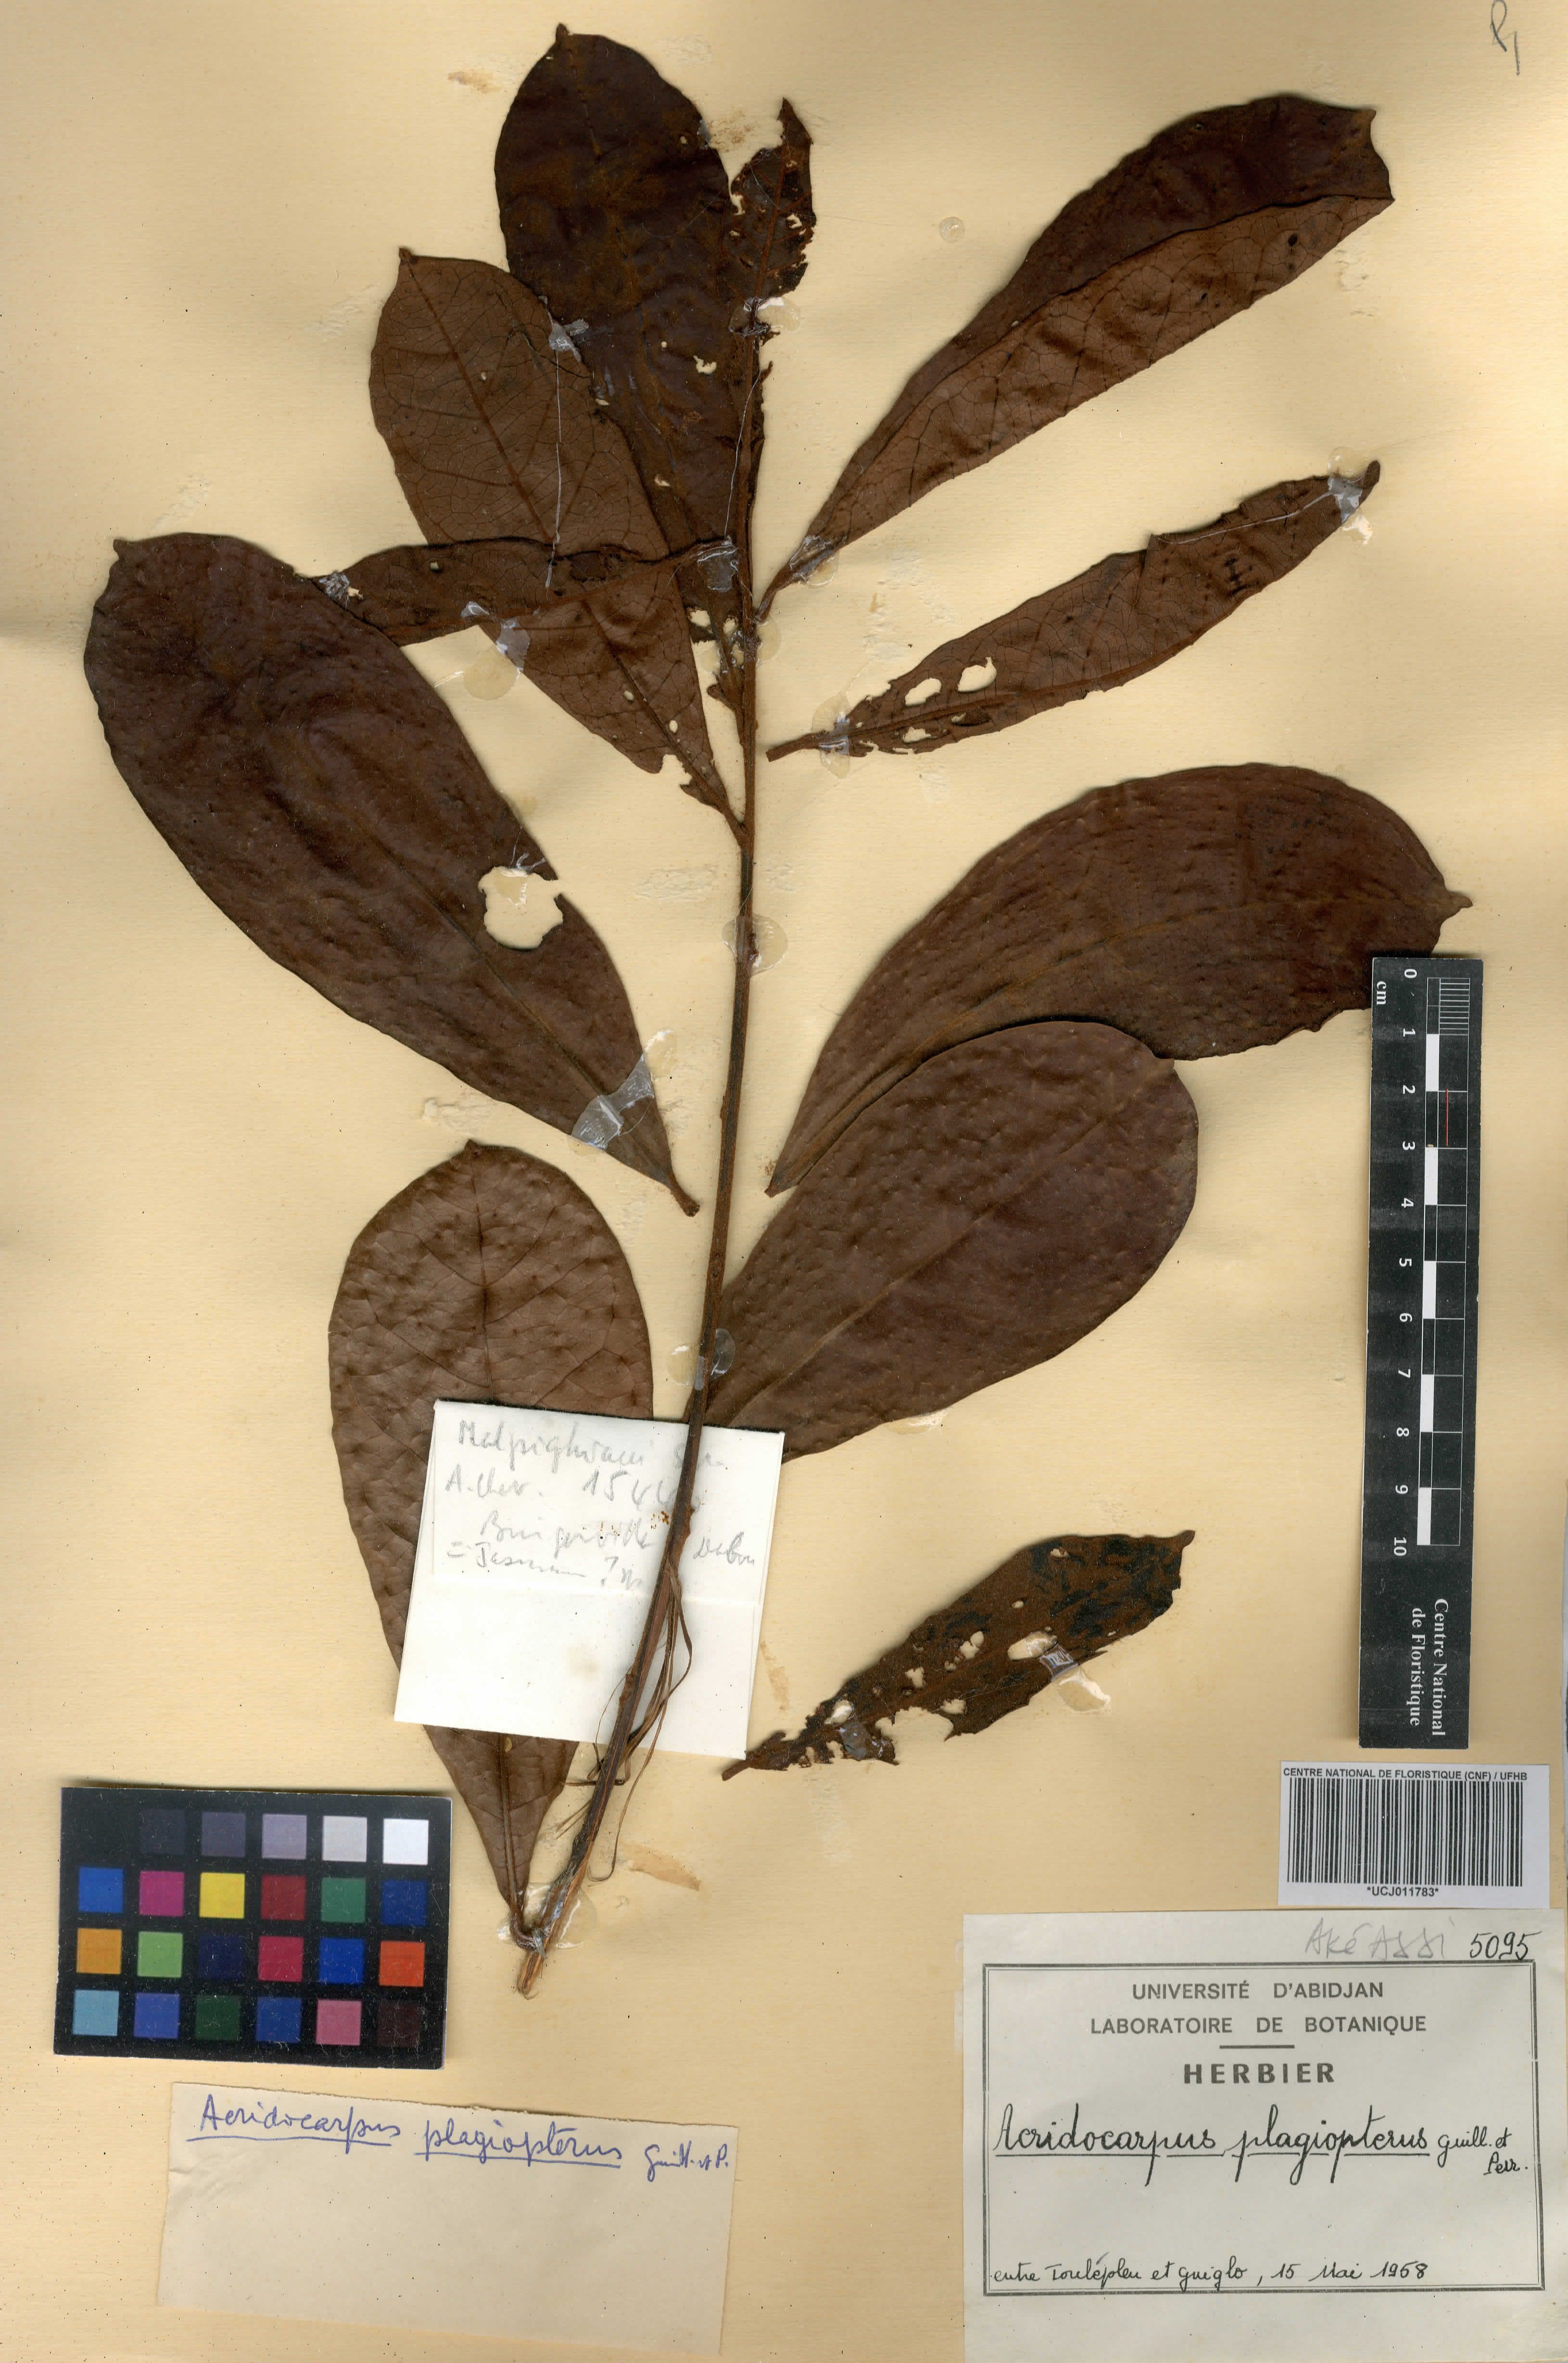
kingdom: Plantae
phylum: Tracheophyta
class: Magnoliopsida
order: Malpighiales
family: Malpighiaceae
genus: Acridocarpus
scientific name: Acridocarpus plagiopterus
